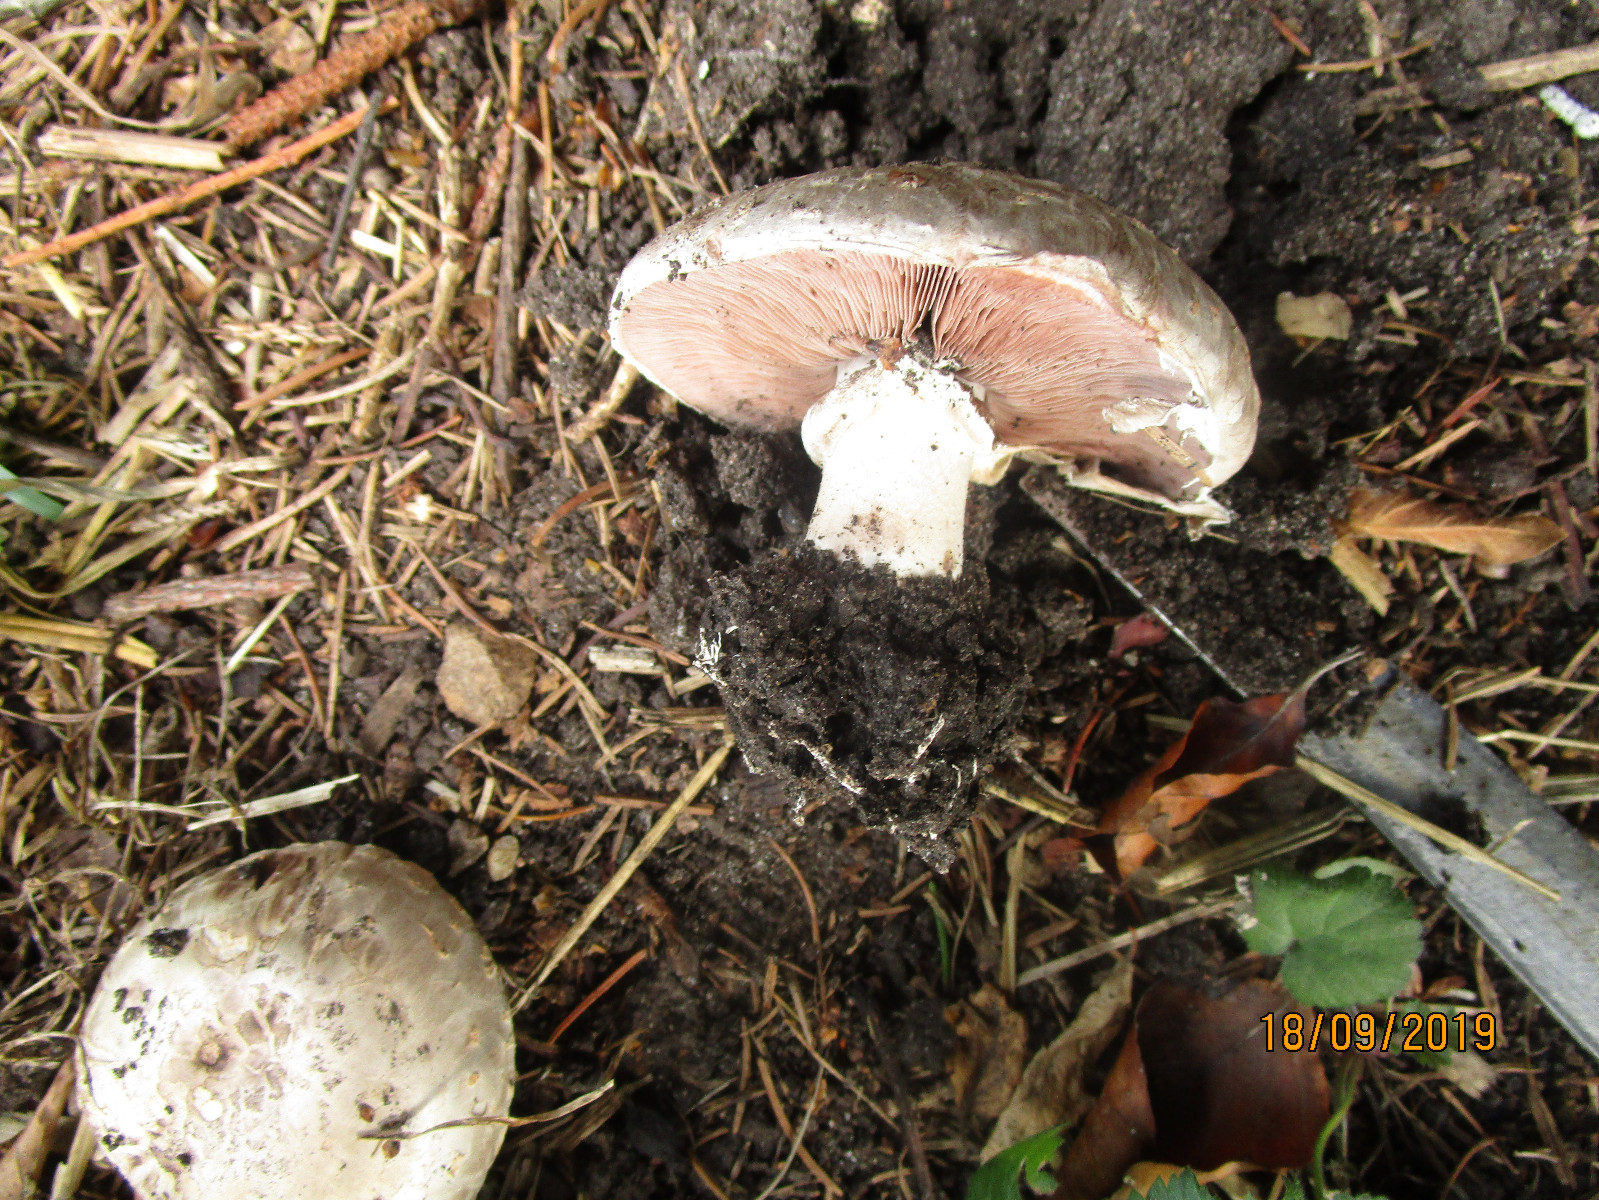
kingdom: Fungi
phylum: Basidiomycota
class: Agaricomycetes
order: Agaricales
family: Agaricaceae
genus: Agaricus
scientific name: Agaricus bisporus
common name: have-champignon
